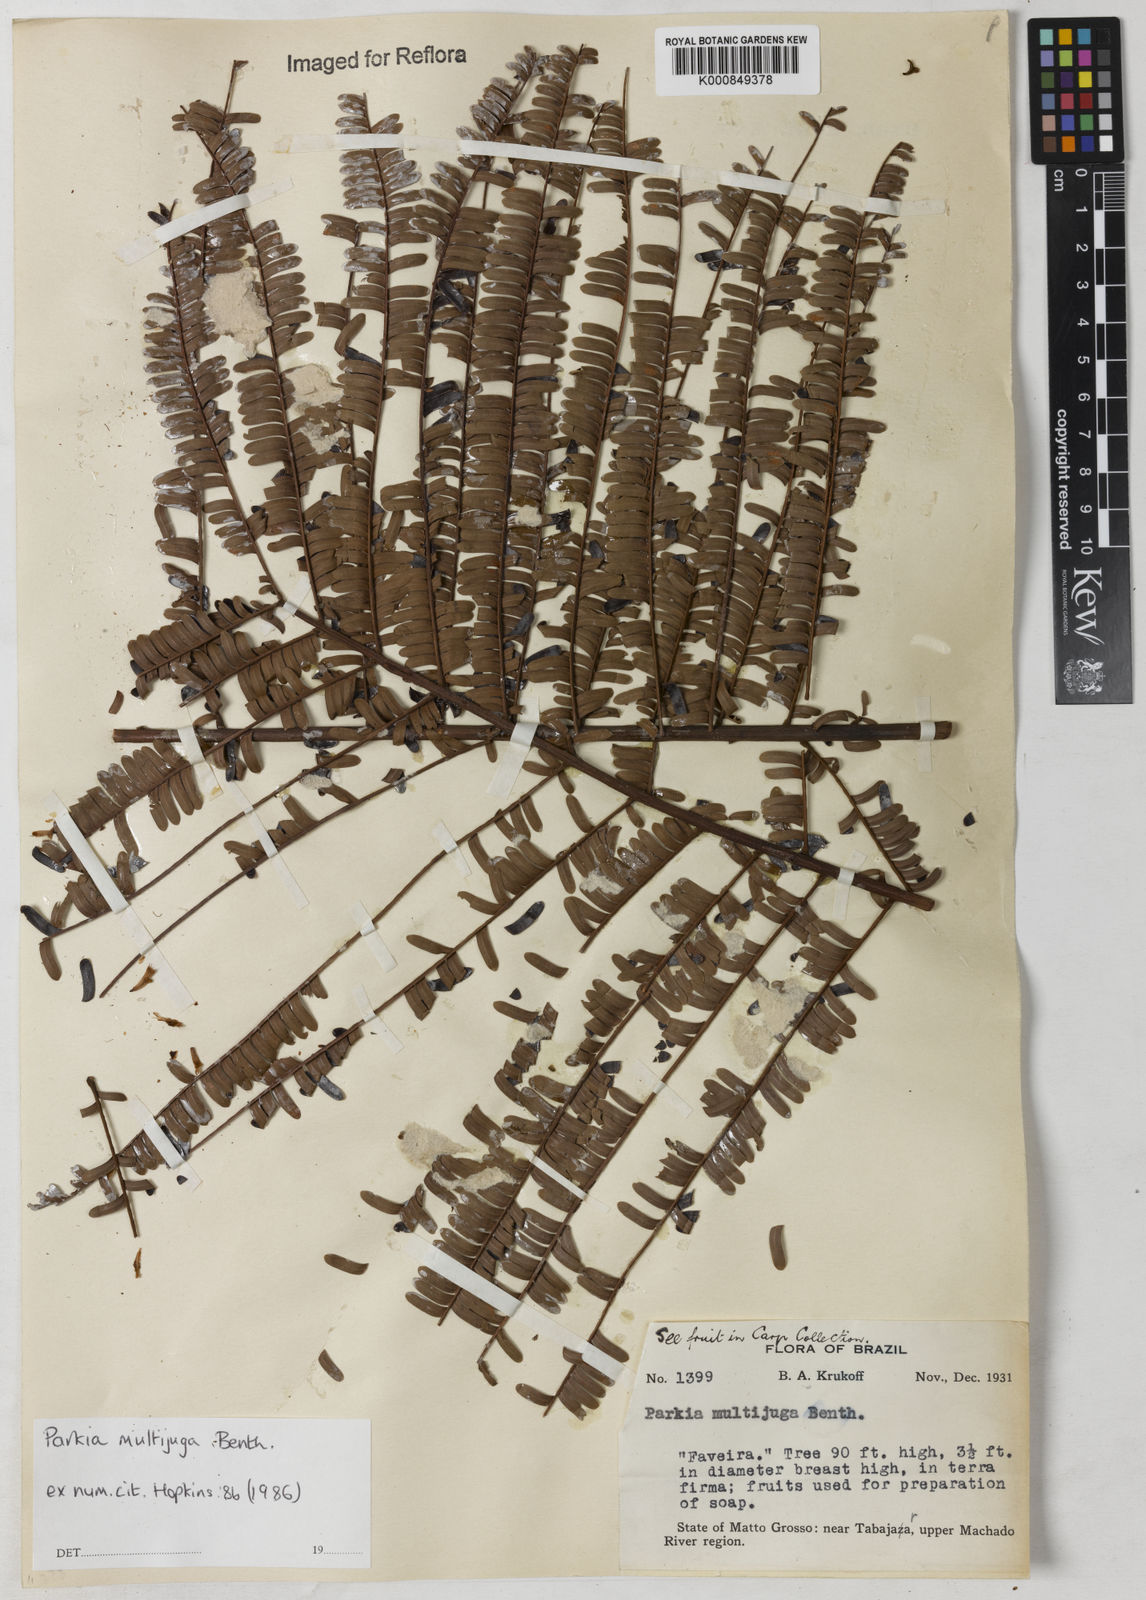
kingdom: Plantae
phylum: Tracheophyta
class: Magnoliopsida
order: Fabales
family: Fabaceae
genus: Parkia
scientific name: Parkia multijuga
